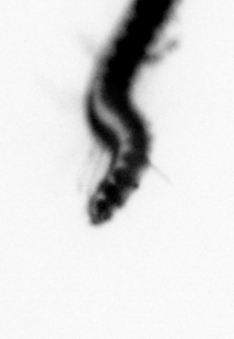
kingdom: Animalia
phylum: Annelida
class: Polychaeta
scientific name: Polychaeta
